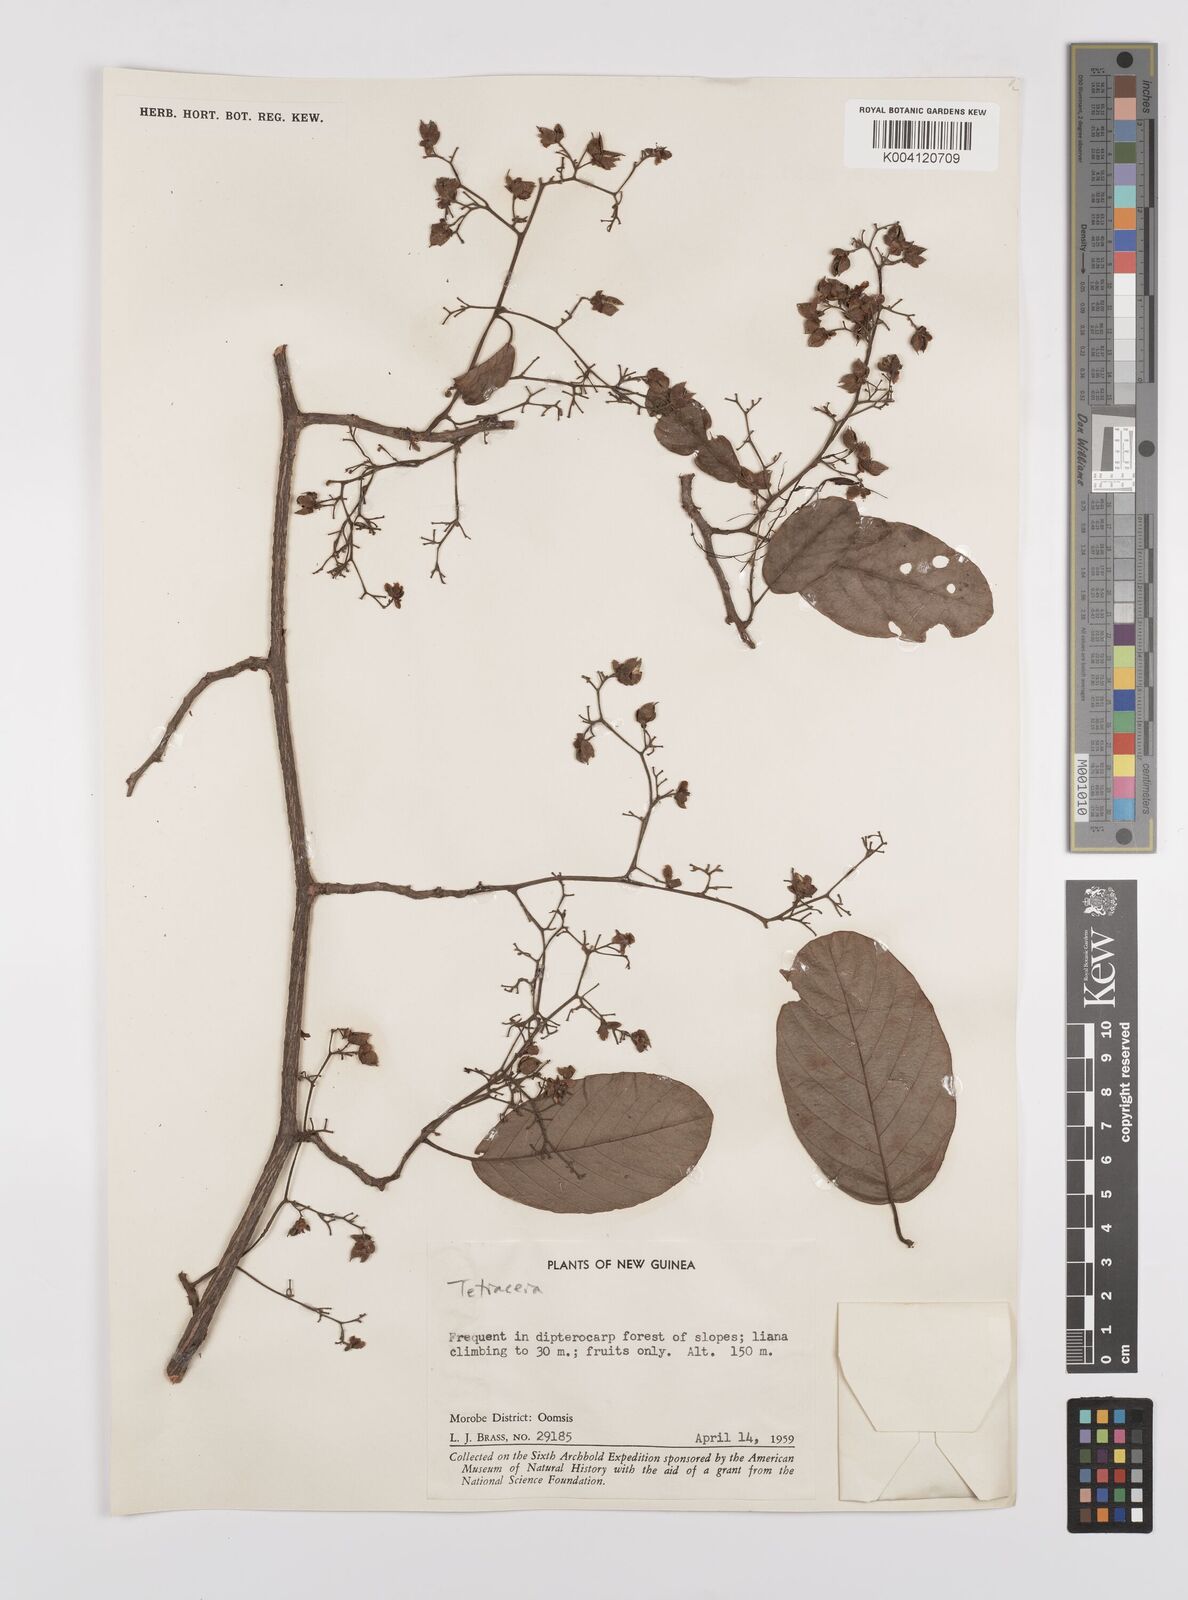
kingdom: Plantae
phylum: Tracheophyta
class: Magnoliopsida
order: Dilleniales
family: Dilleniaceae
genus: Tetracera
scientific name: Tetracera
